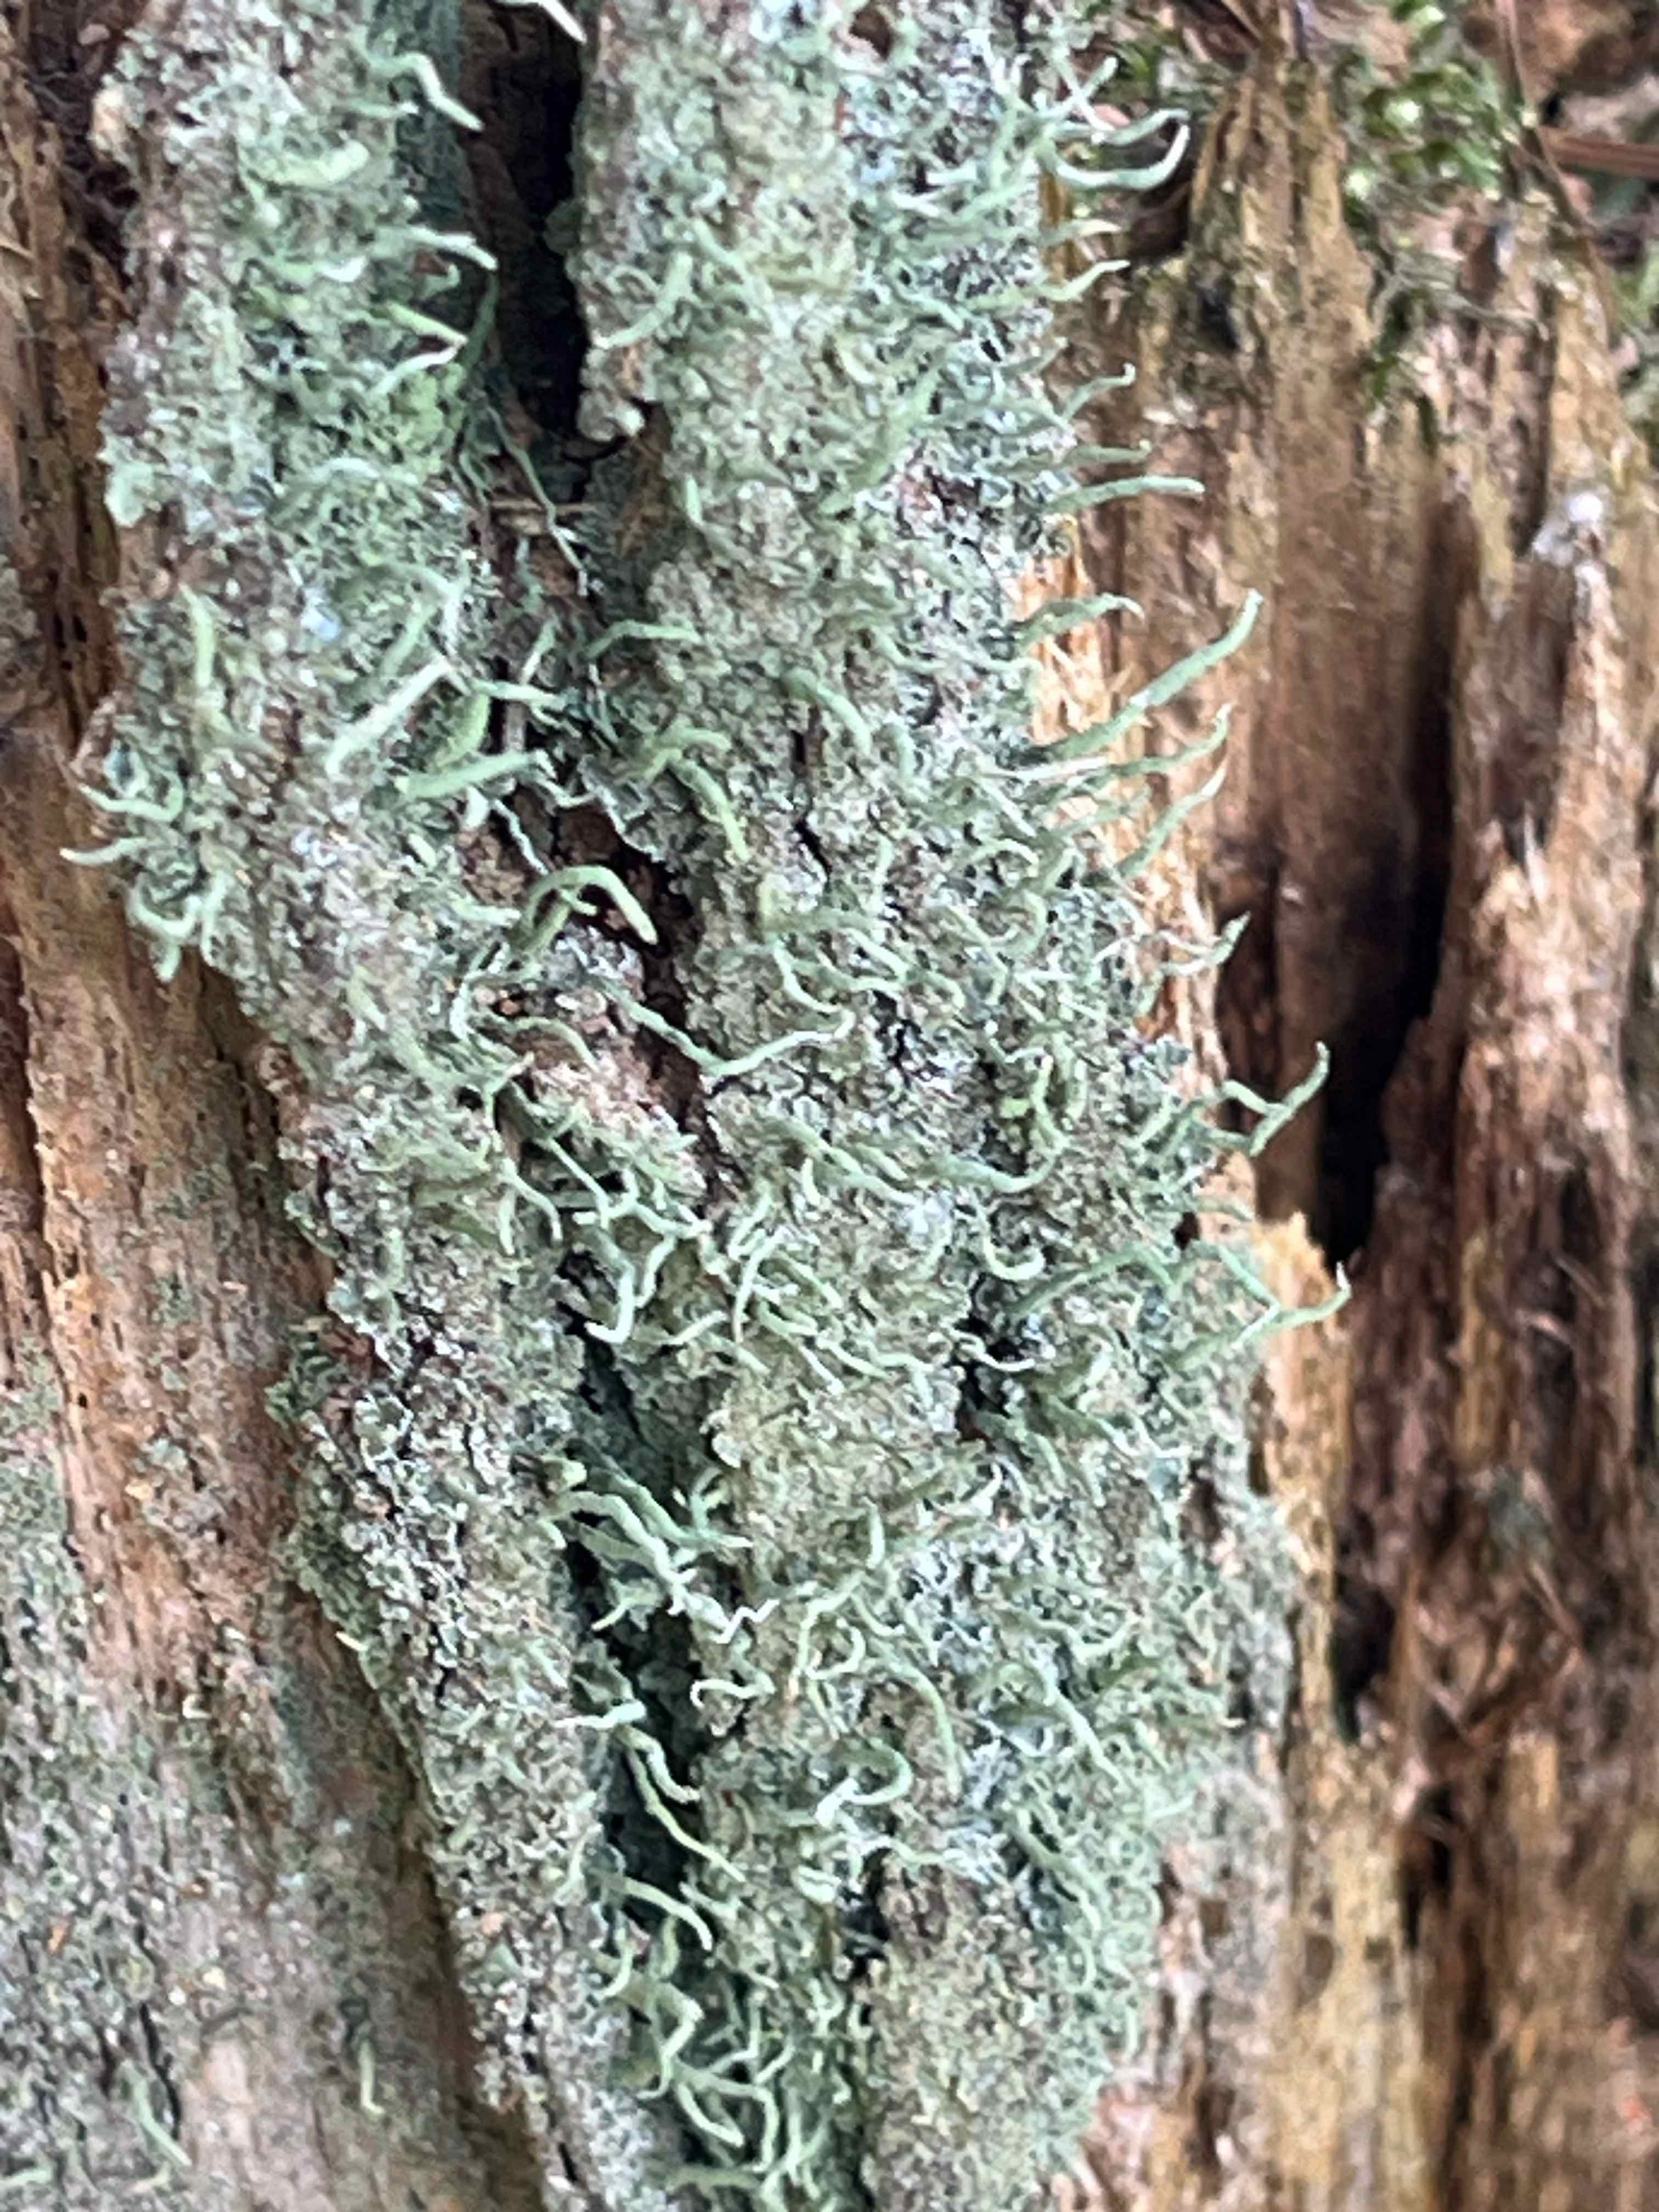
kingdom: Fungi
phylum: Ascomycota
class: Lecanoromycetes
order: Lecanorales
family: Cladoniaceae
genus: Cladonia
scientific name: Cladonia coniocraea
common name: træfods-bægerlav
